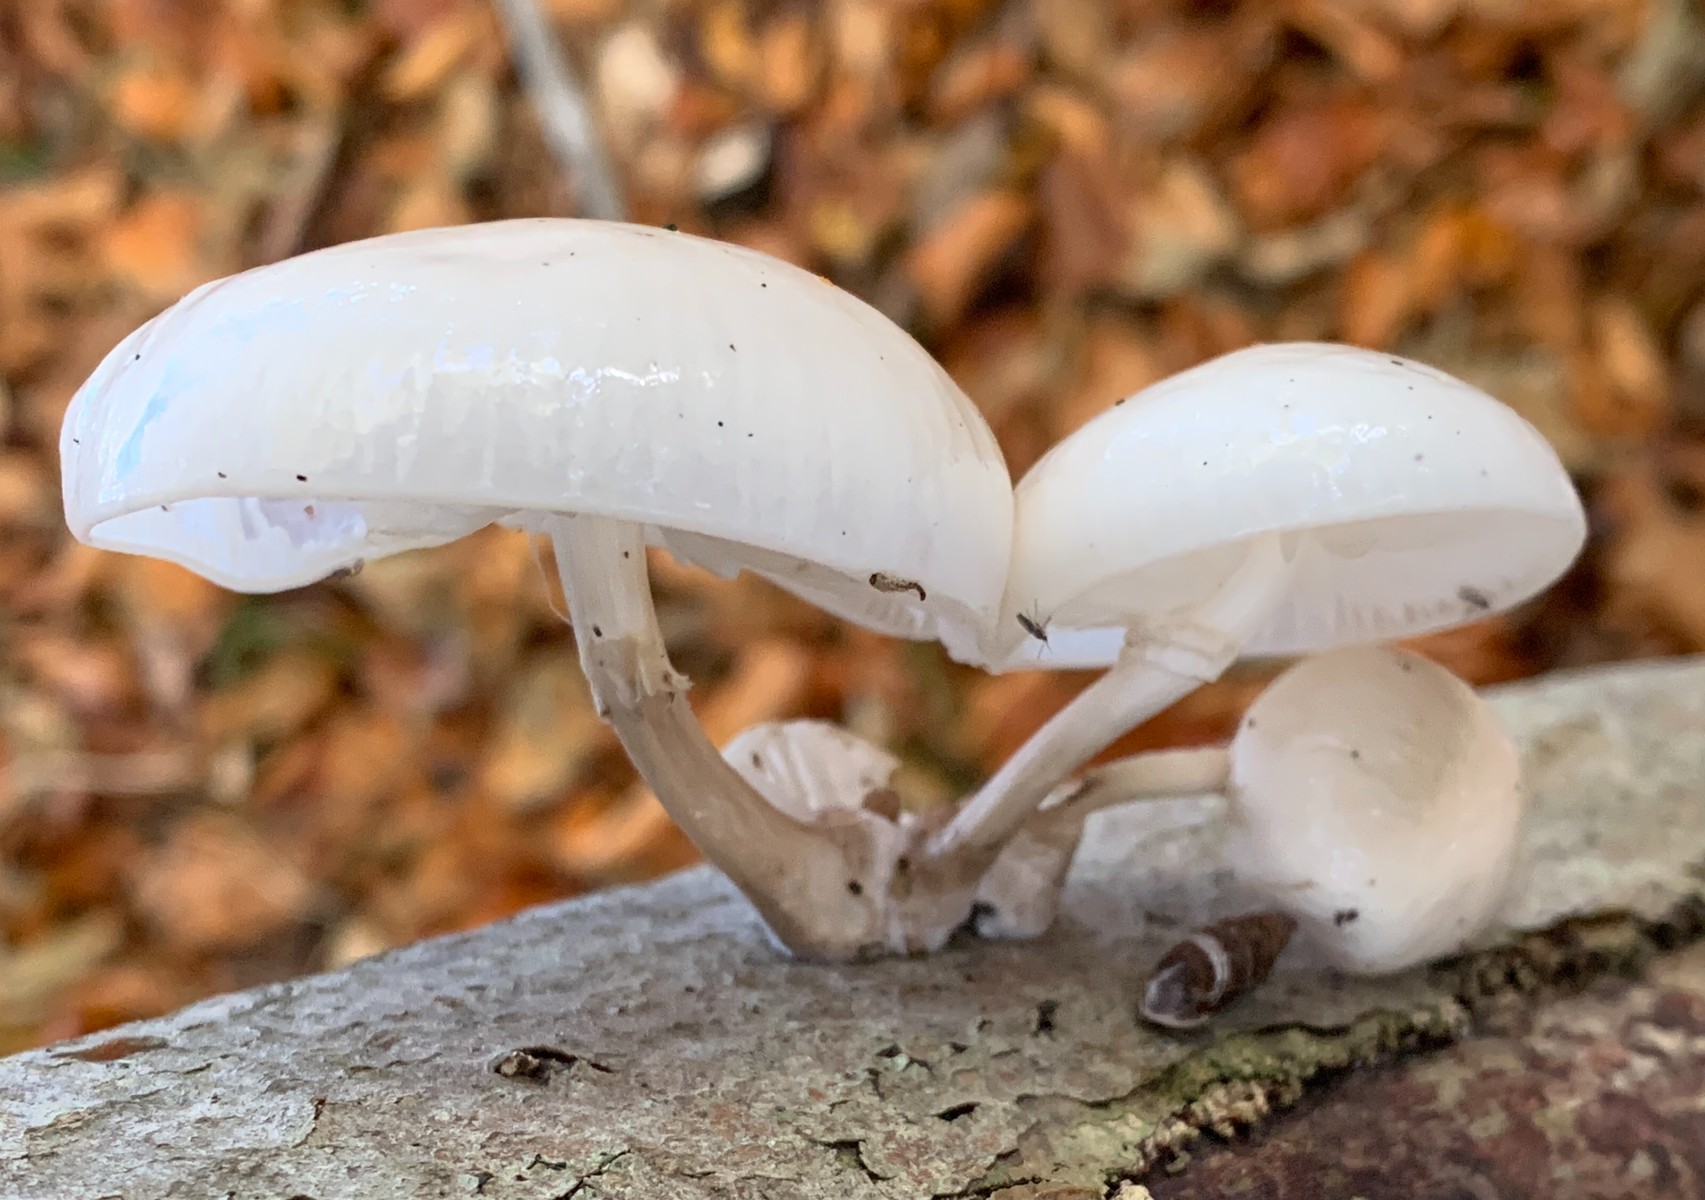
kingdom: Fungi
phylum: Basidiomycota
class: Agaricomycetes
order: Agaricales
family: Physalacriaceae
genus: Mucidula
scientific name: Mucidula mucida
